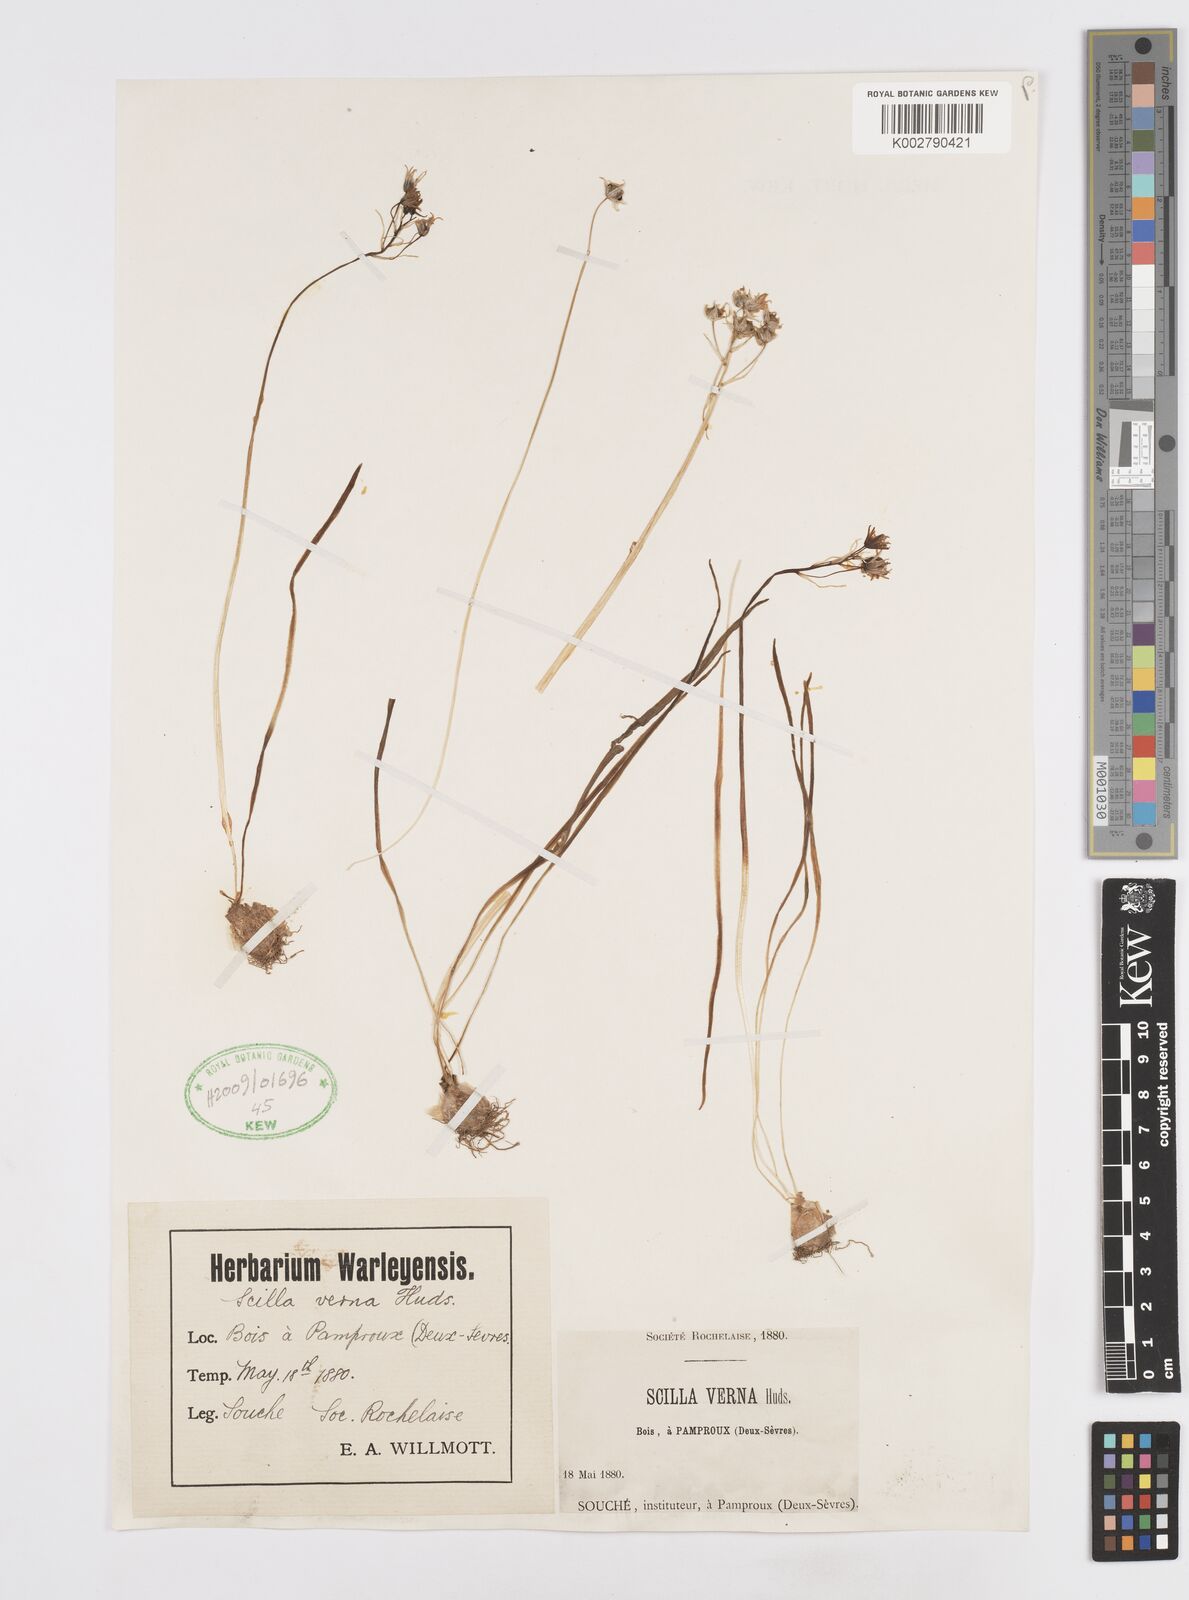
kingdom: Plantae
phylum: Tracheophyta
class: Liliopsida
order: Asparagales
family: Asparagaceae
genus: Scilla
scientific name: Scilla verna
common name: Spring squill
